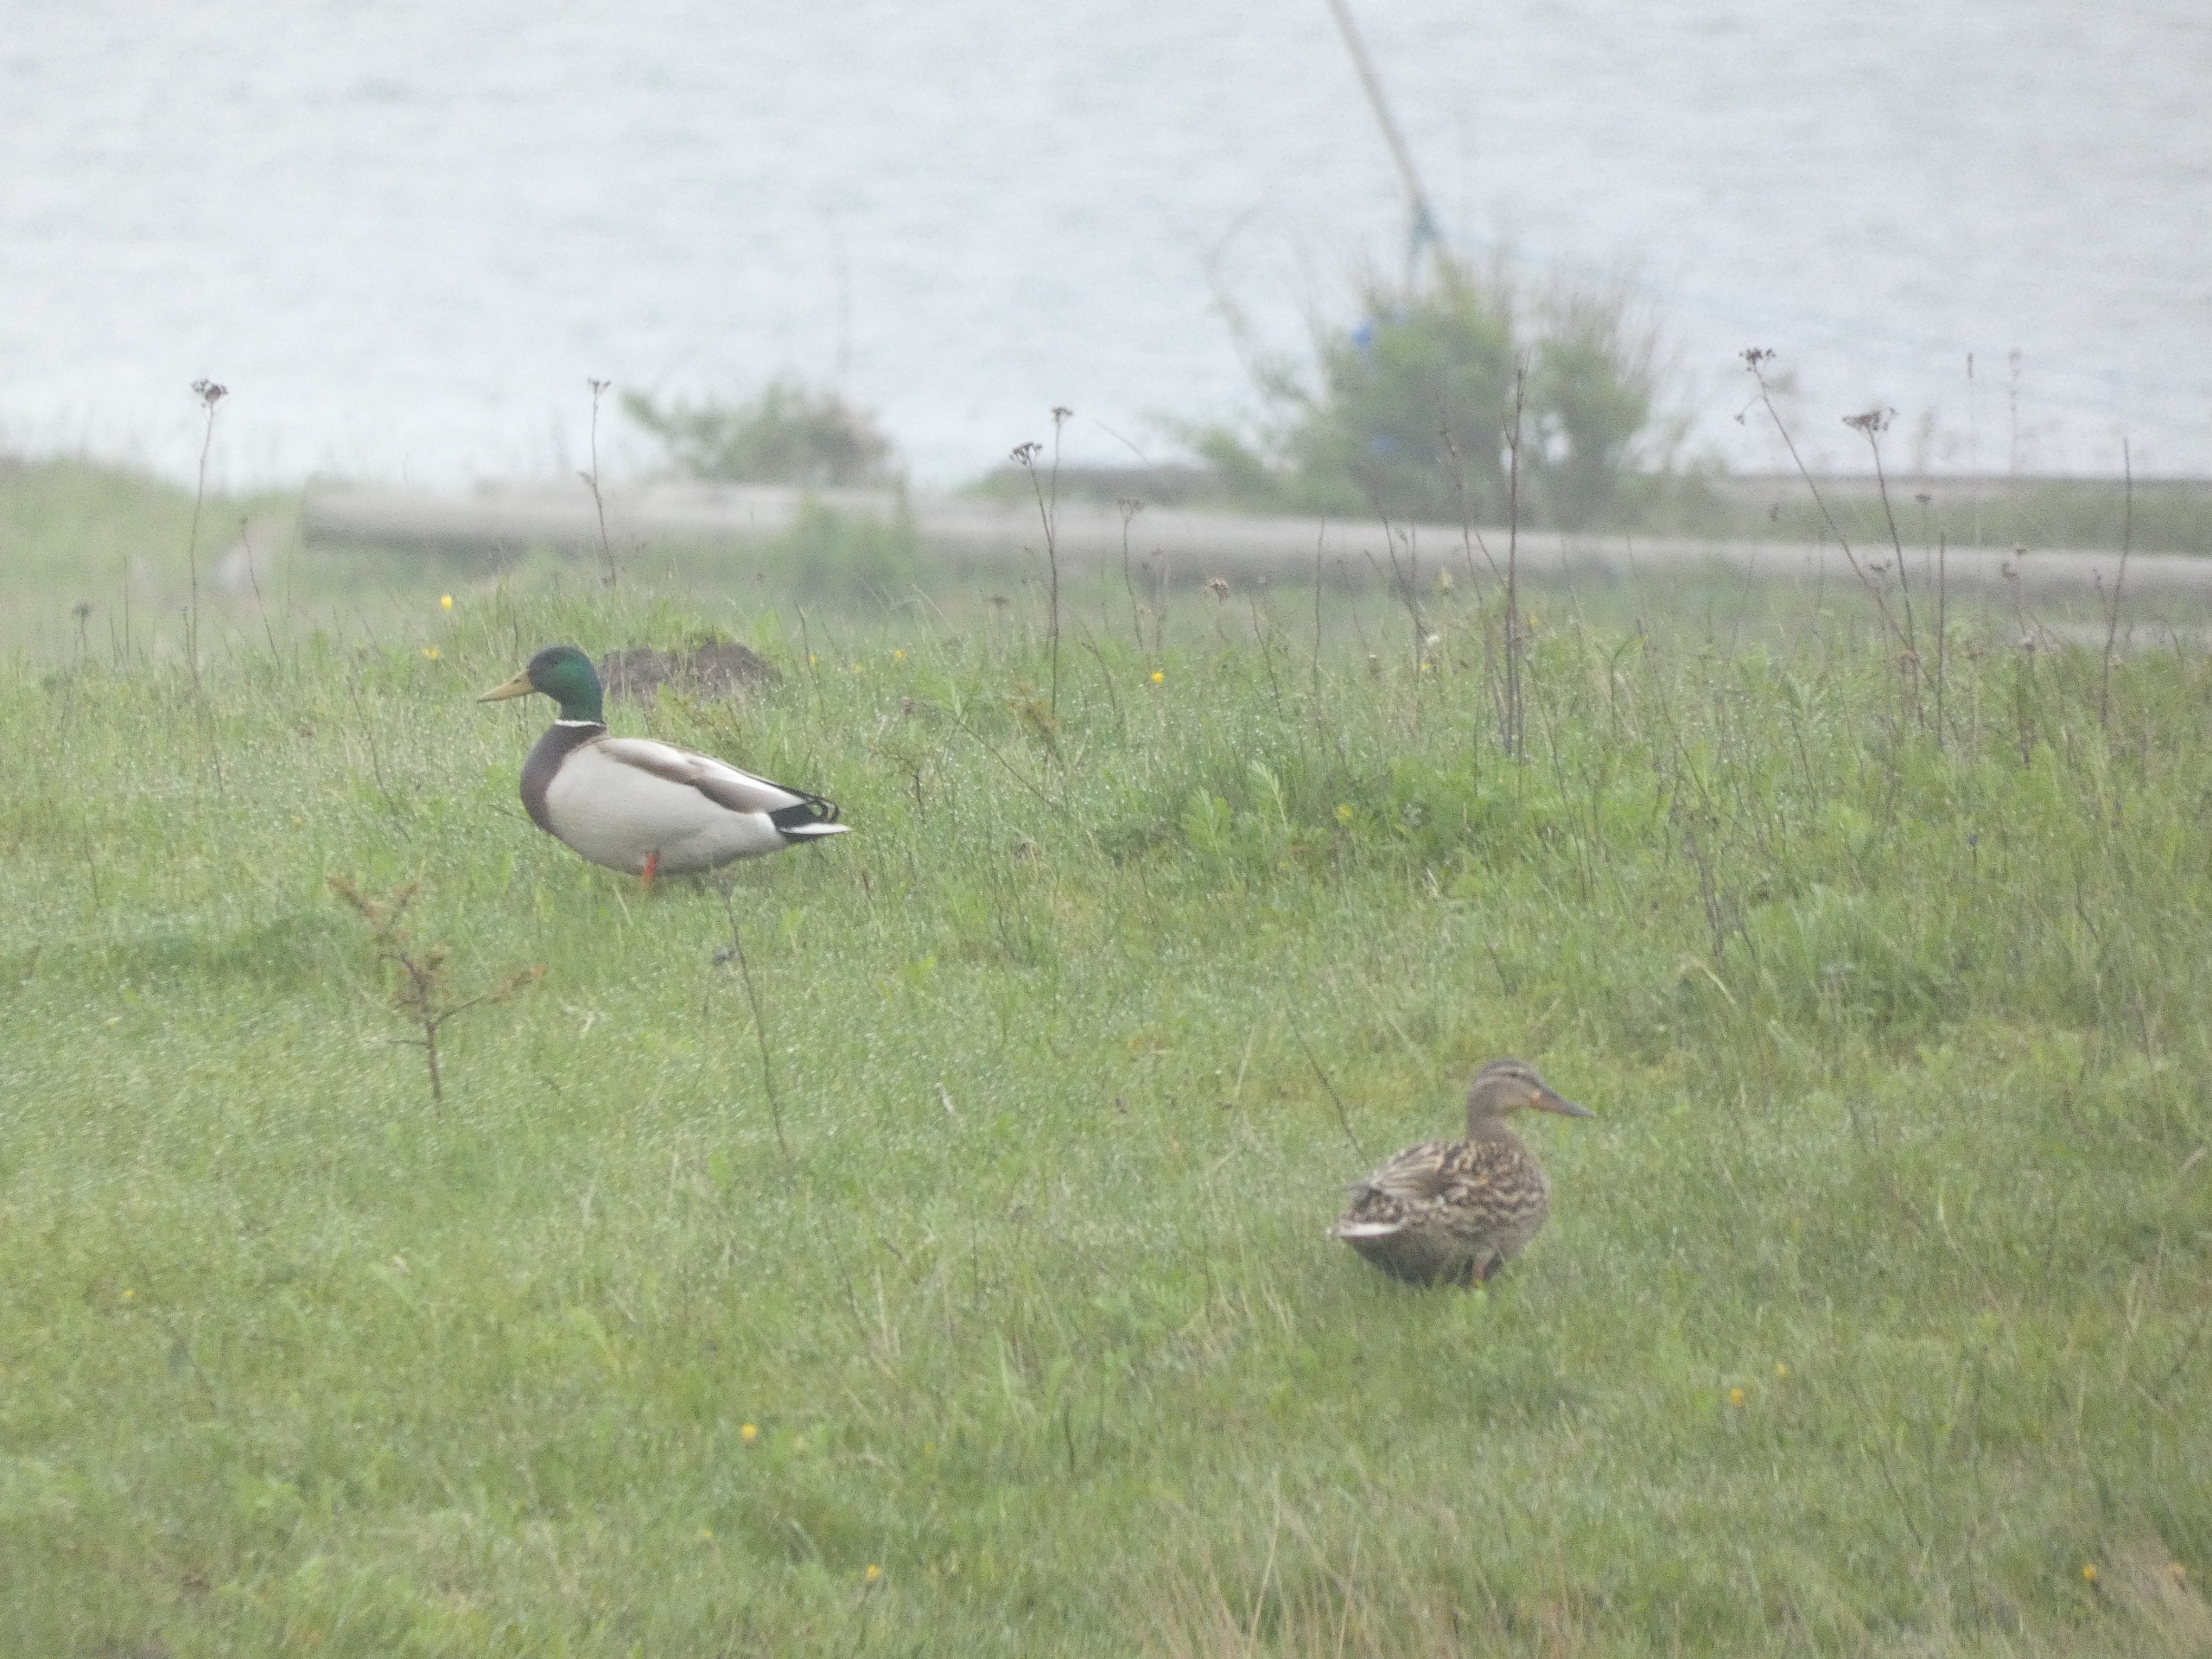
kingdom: Animalia
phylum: Chordata
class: Aves
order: Anseriformes
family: Anatidae
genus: Anas
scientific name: Anas platyrhynchos
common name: Gråand
